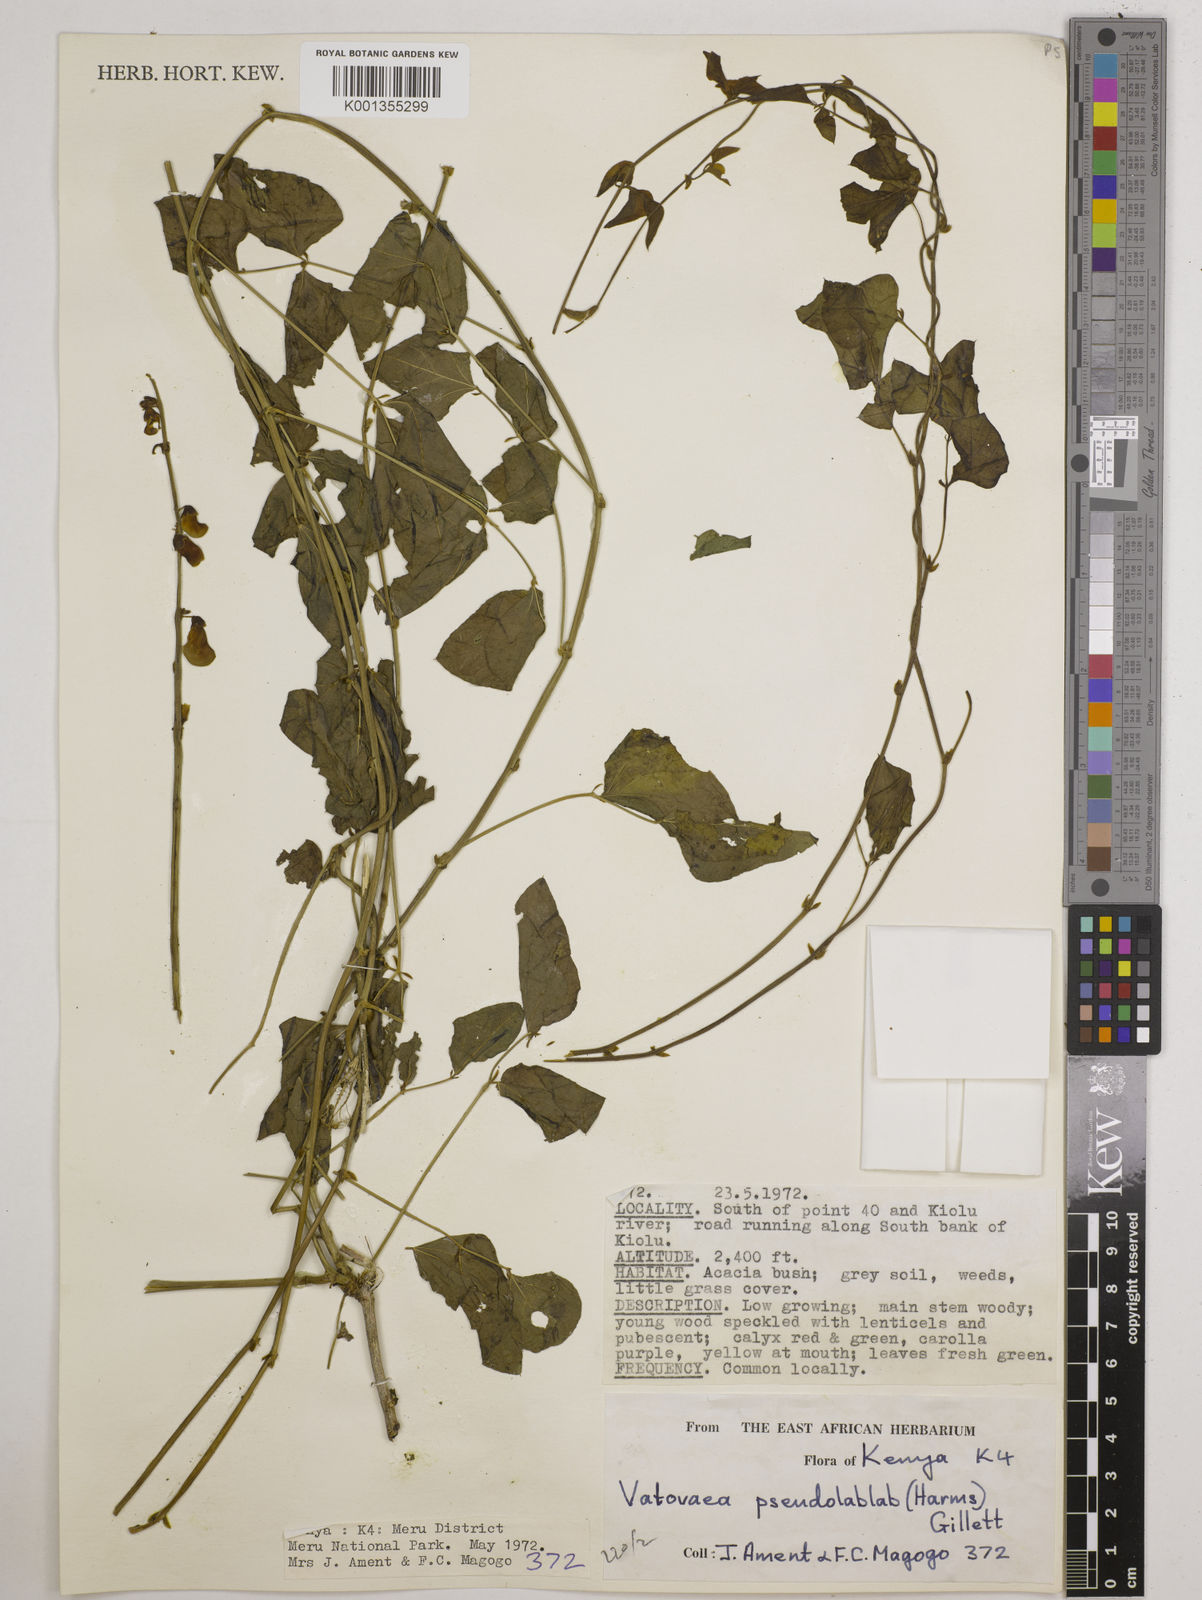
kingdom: Plantae
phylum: Tracheophyta
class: Magnoliopsida
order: Fabales
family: Fabaceae
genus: Vatovaea
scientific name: Vatovaea pseudolablab
